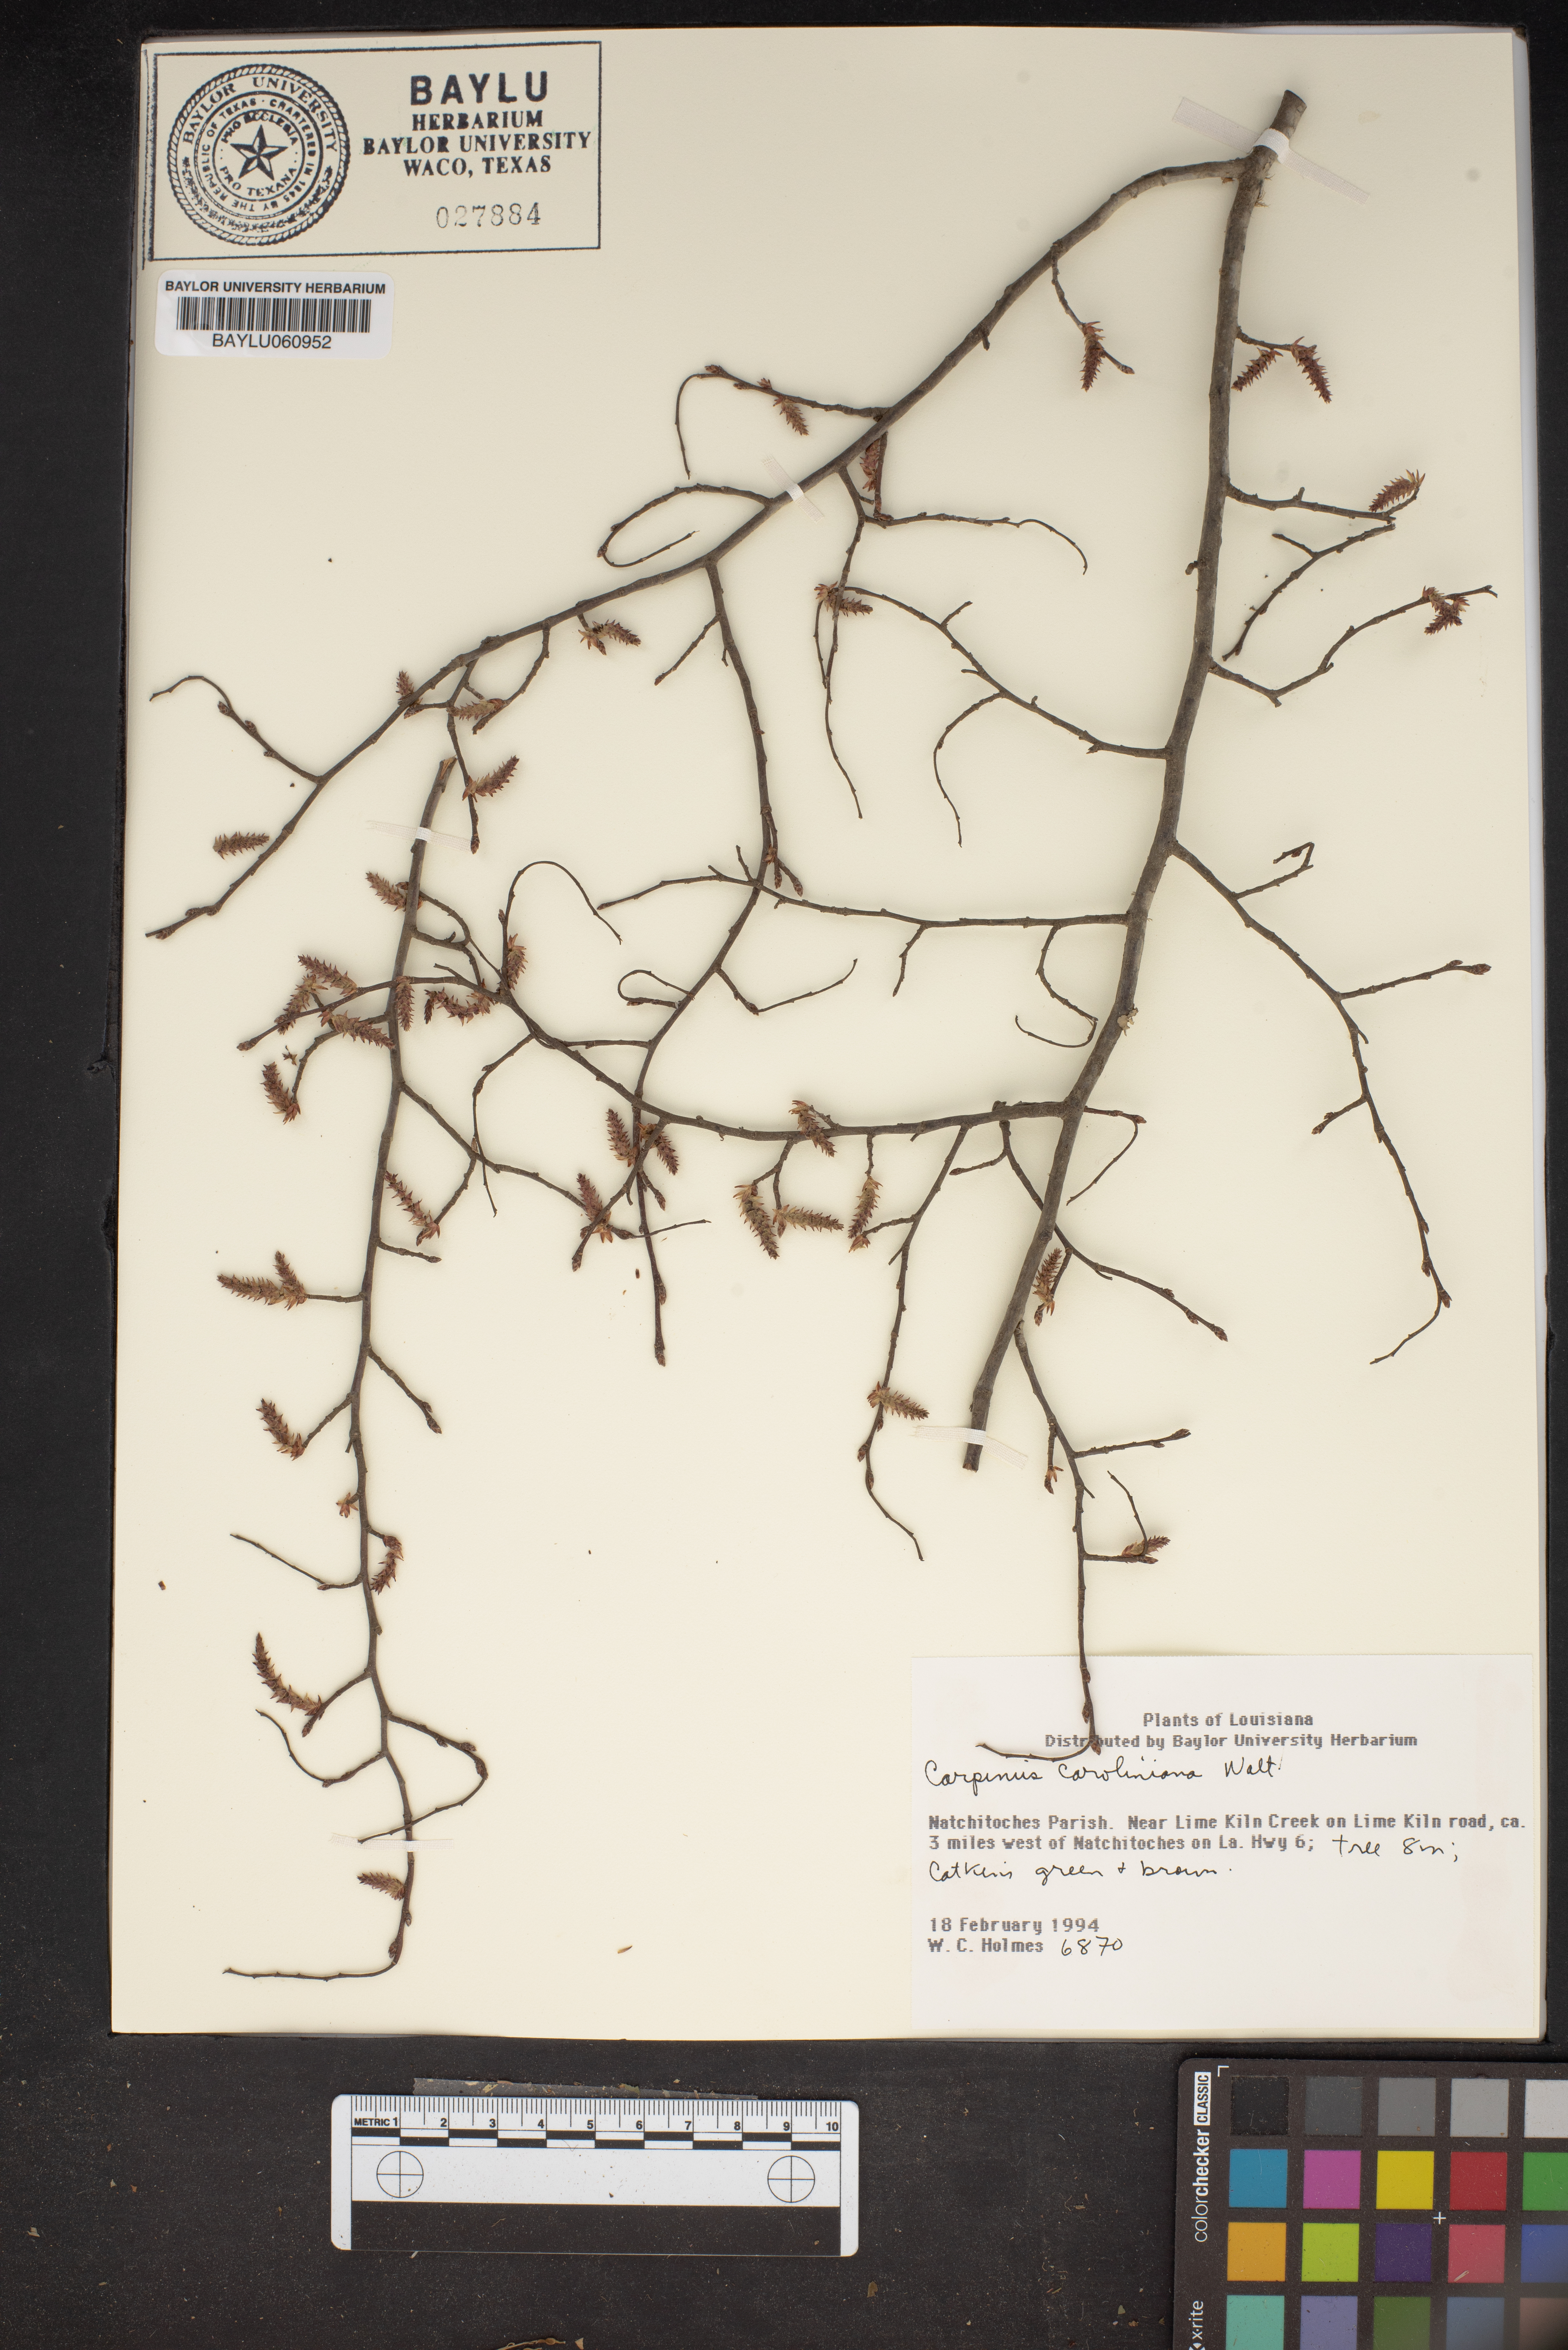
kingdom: Plantae
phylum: Tracheophyta
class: Magnoliopsida
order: Fagales
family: Betulaceae
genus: Carpinus
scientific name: Carpinus caroliniana
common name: American hornbeam
